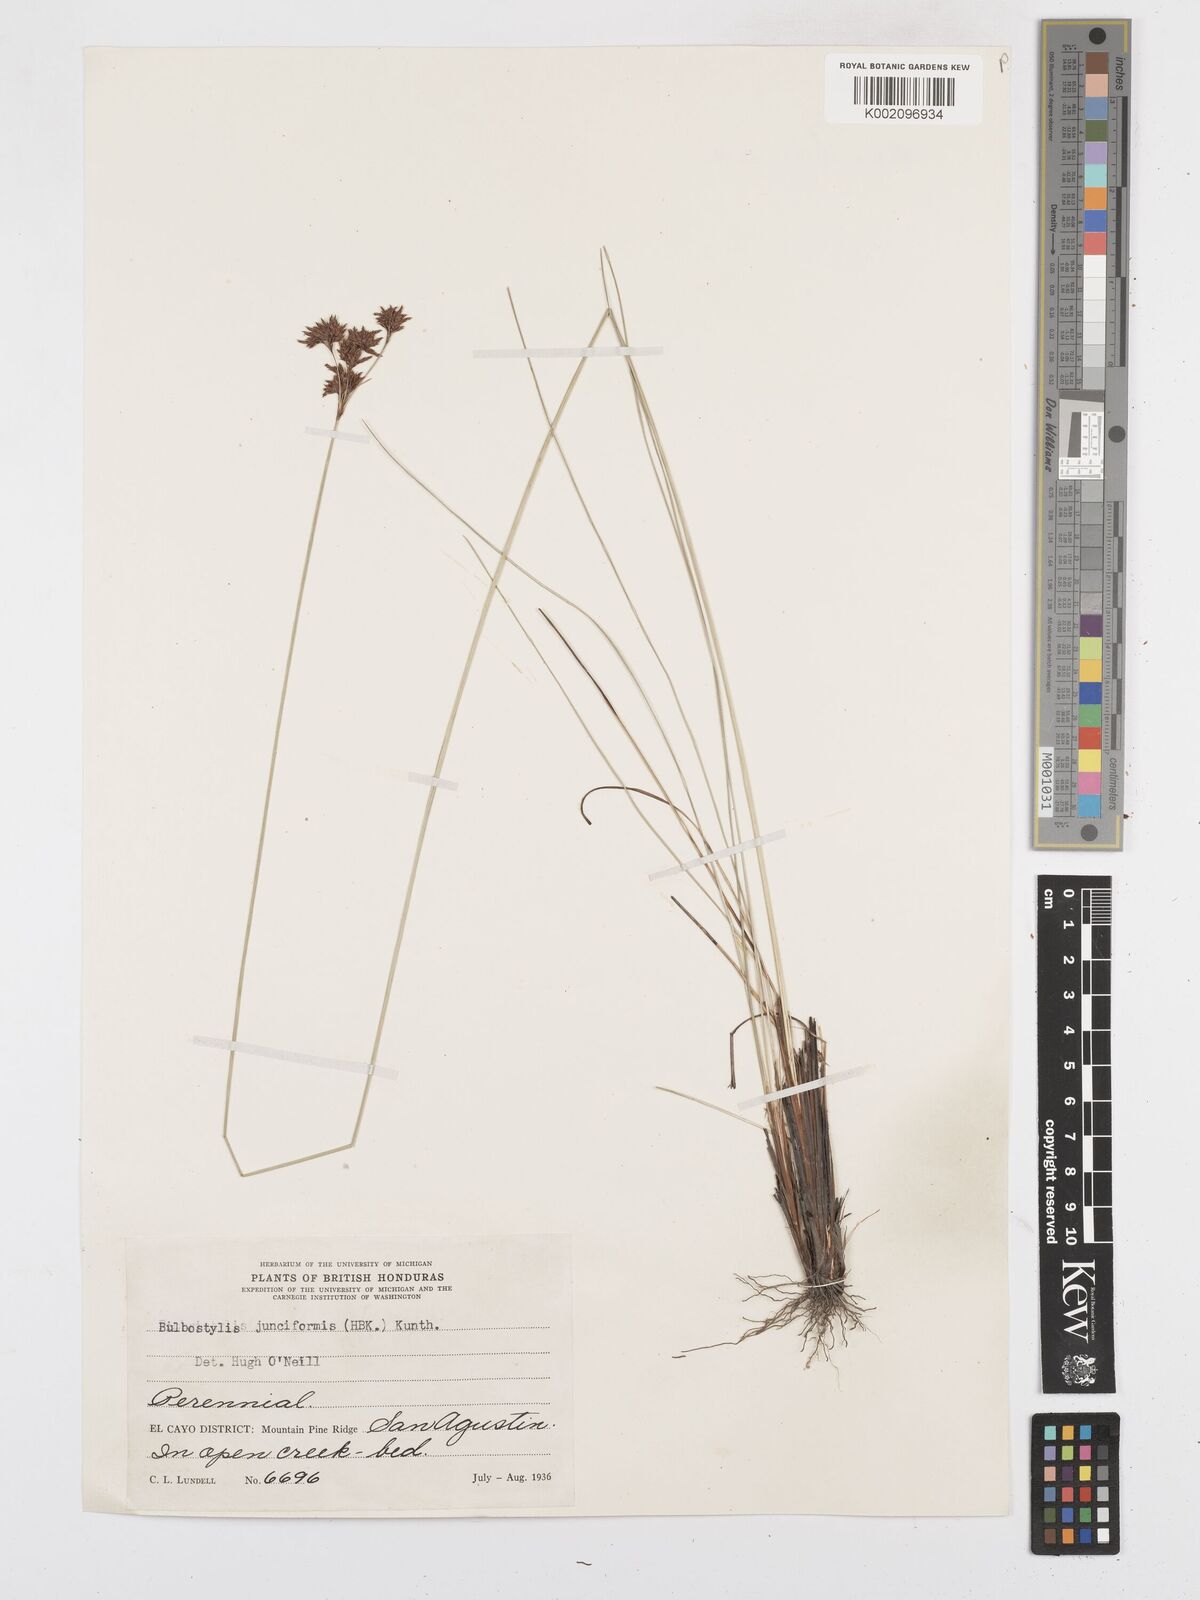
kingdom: Plantae
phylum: Tracheophyta
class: Liliopsida
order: Poales
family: Cyperaceae
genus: Bulbostylis
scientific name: Bulbostylis junciformis
